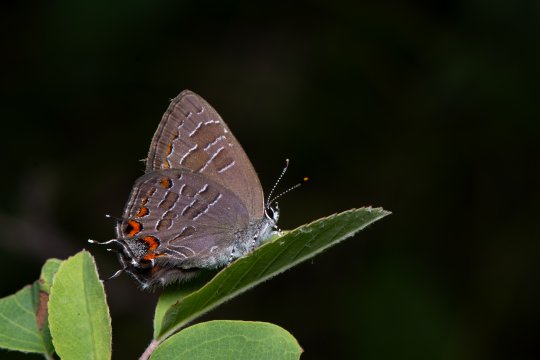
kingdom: Animalia
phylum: Arthropoda
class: Insecta
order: Lepidoptera
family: Lycaenidae
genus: Satyrium
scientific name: Satyrium liparops
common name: Striped Hairstreak
